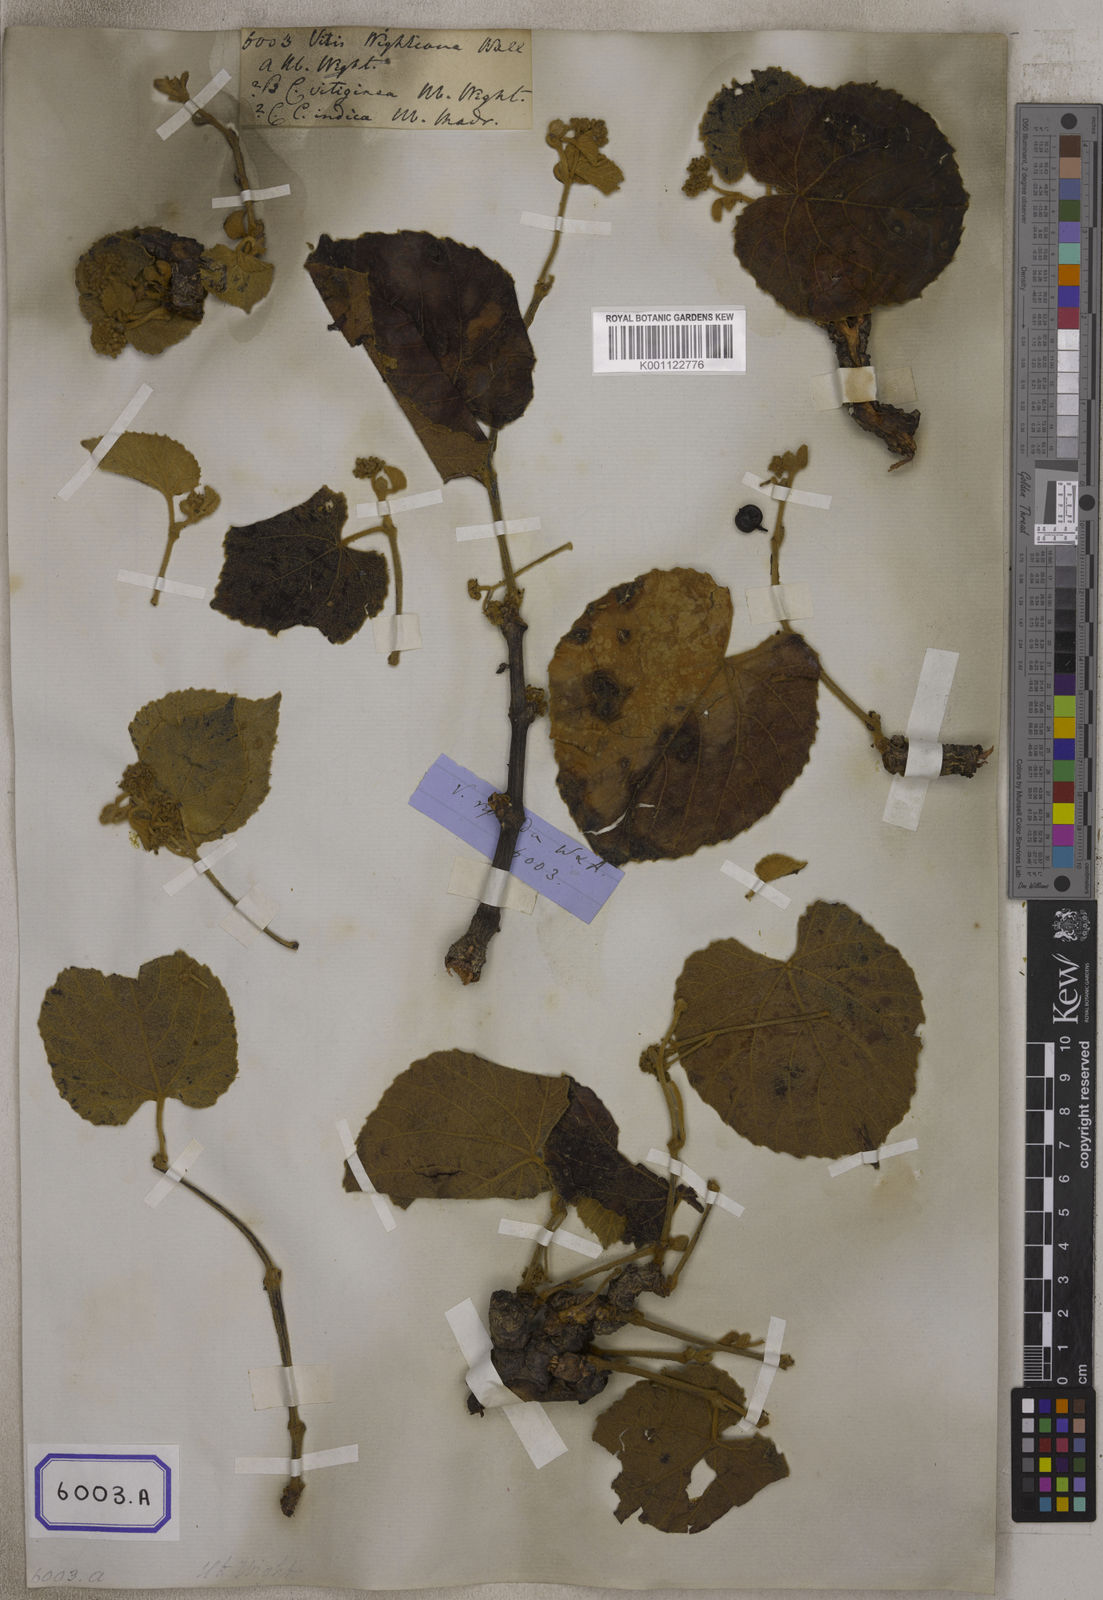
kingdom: Plantae
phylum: Tracheophyta
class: Magnoliopsida
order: Vitales
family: Vitaceae
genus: Cissus
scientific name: Cissus repanda
